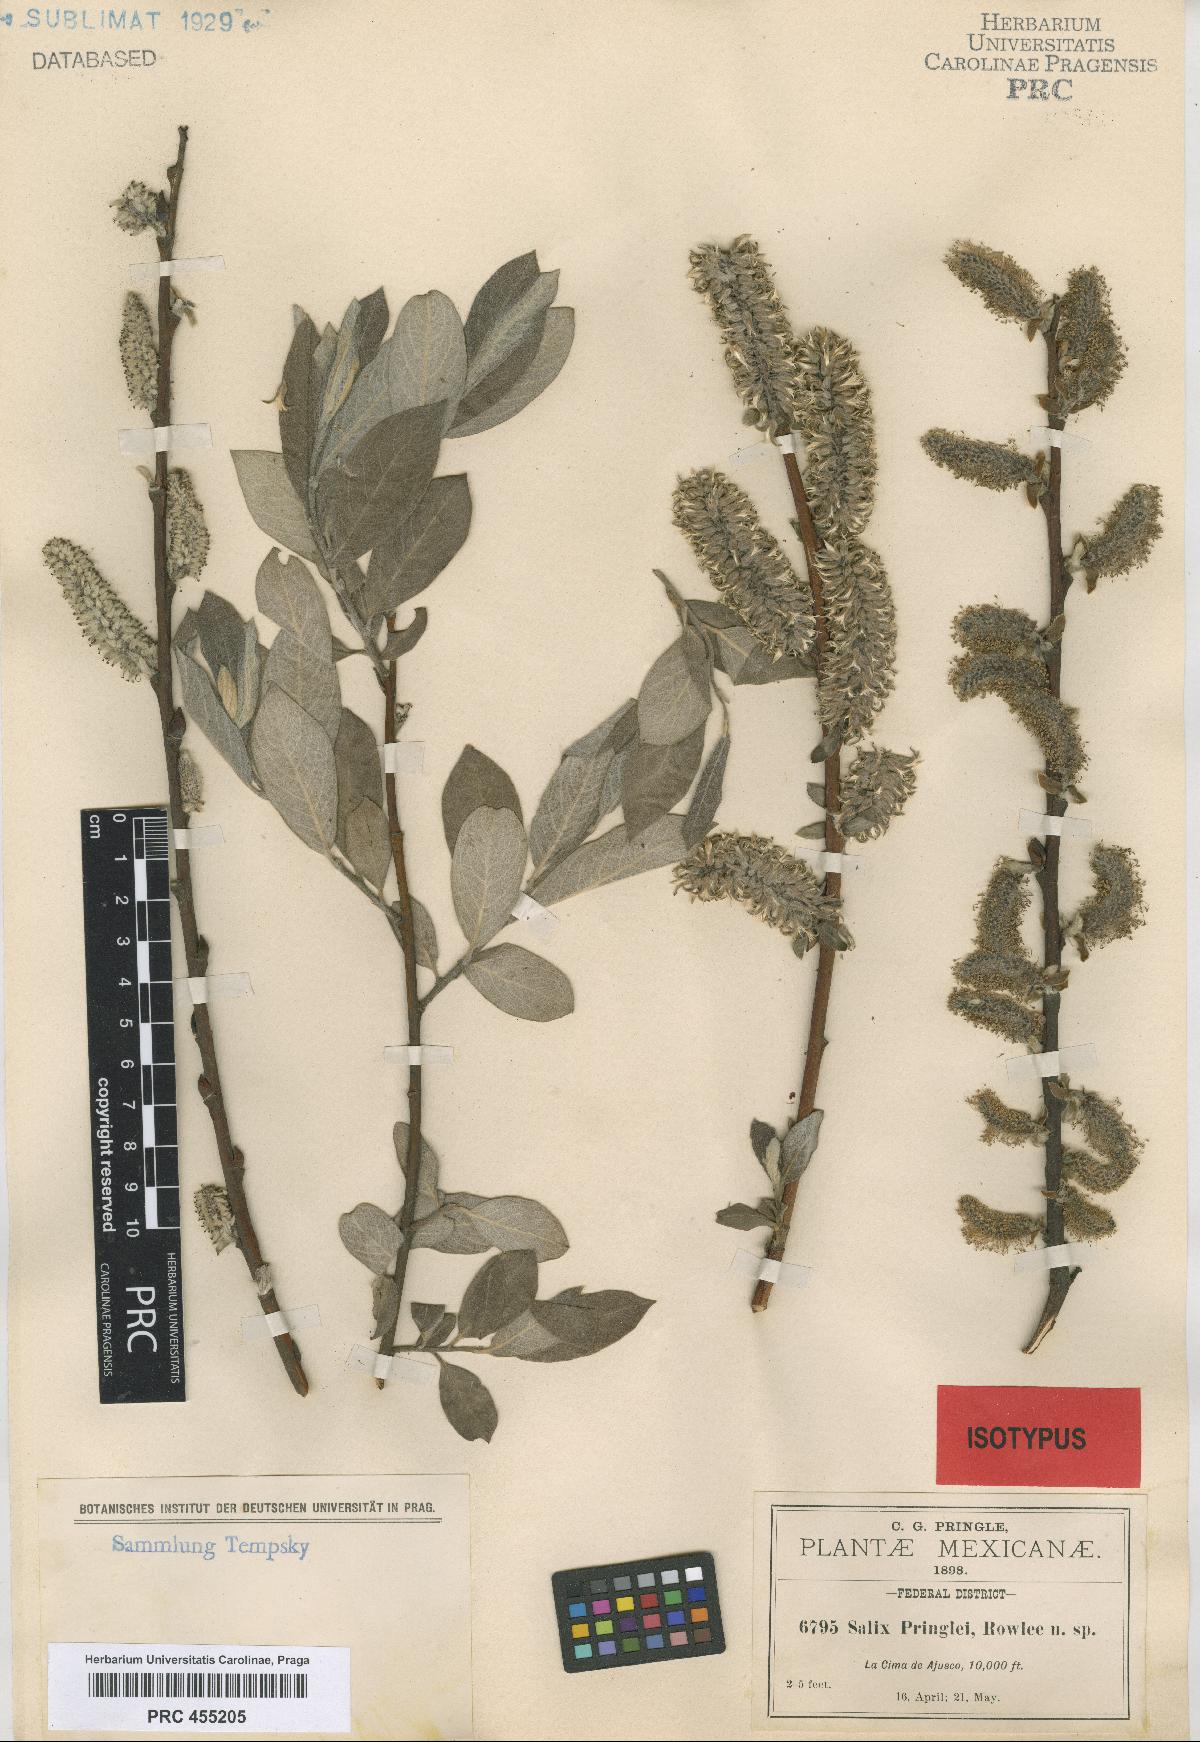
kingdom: Plantae
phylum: Tracheophyta
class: Magnoliopsida
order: Malpighiales
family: Salicaceae
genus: Salix
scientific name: Salix paradoxa
